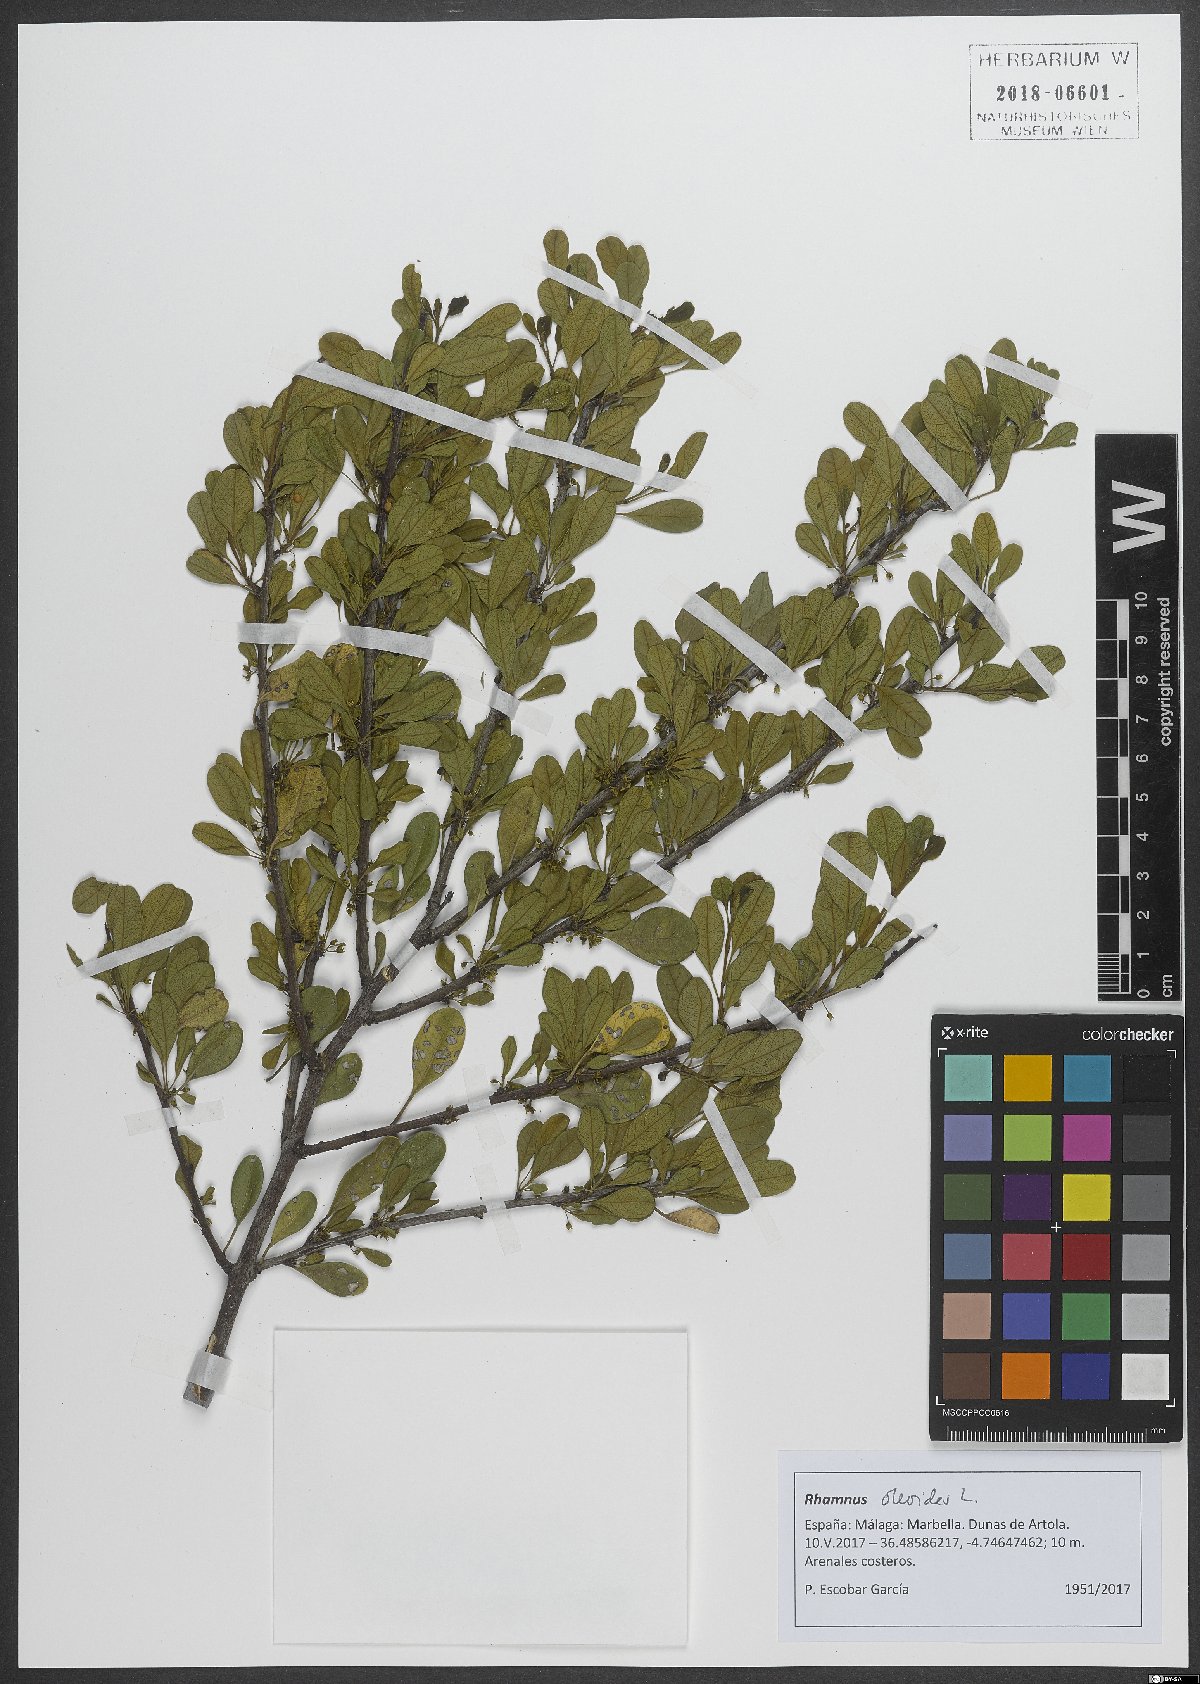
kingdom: Plantae
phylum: Tracheophyta
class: Magnoliopsida
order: Rosales
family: Rhamnaceae
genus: Rhamnus
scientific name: Rhamnus oleoides
